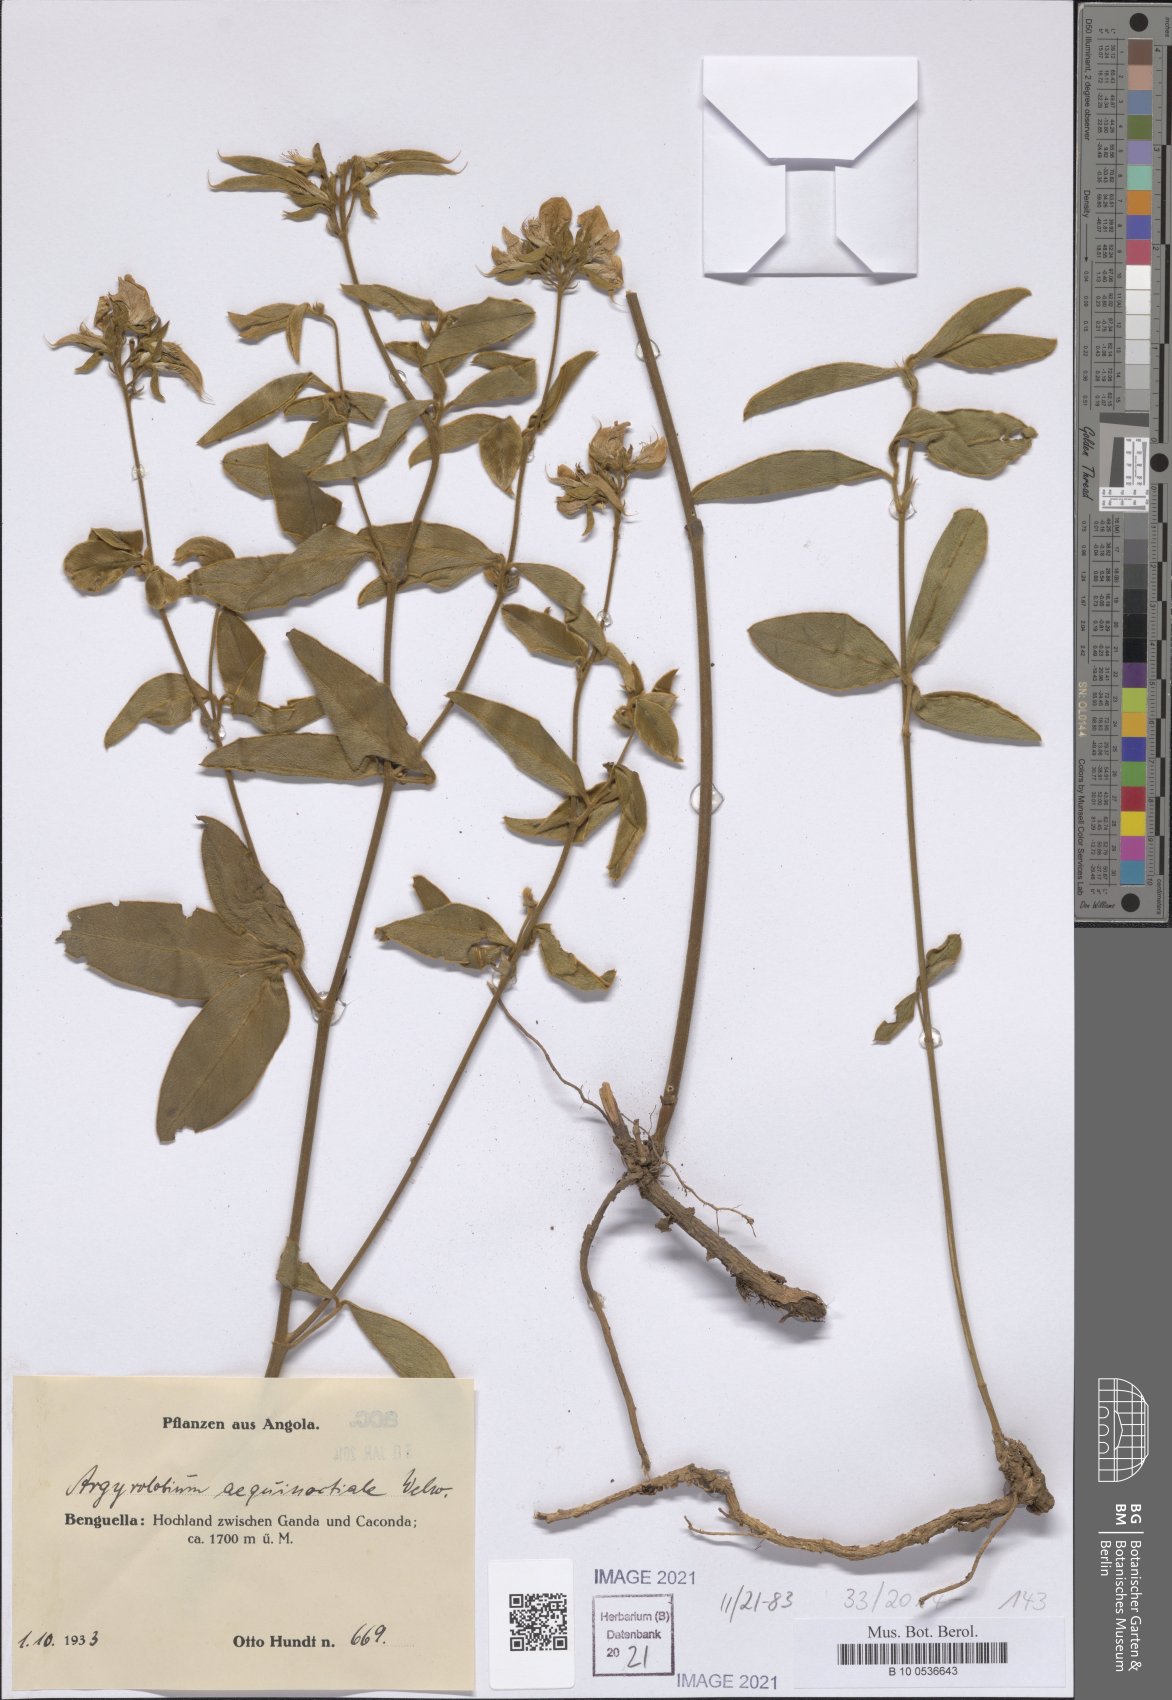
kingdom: Plantae
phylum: Tracheophyta
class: Magnoliopsida
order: Fabales
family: Fabaceae
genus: Argyrolobium
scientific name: Argyrolobium aequinoctiale
